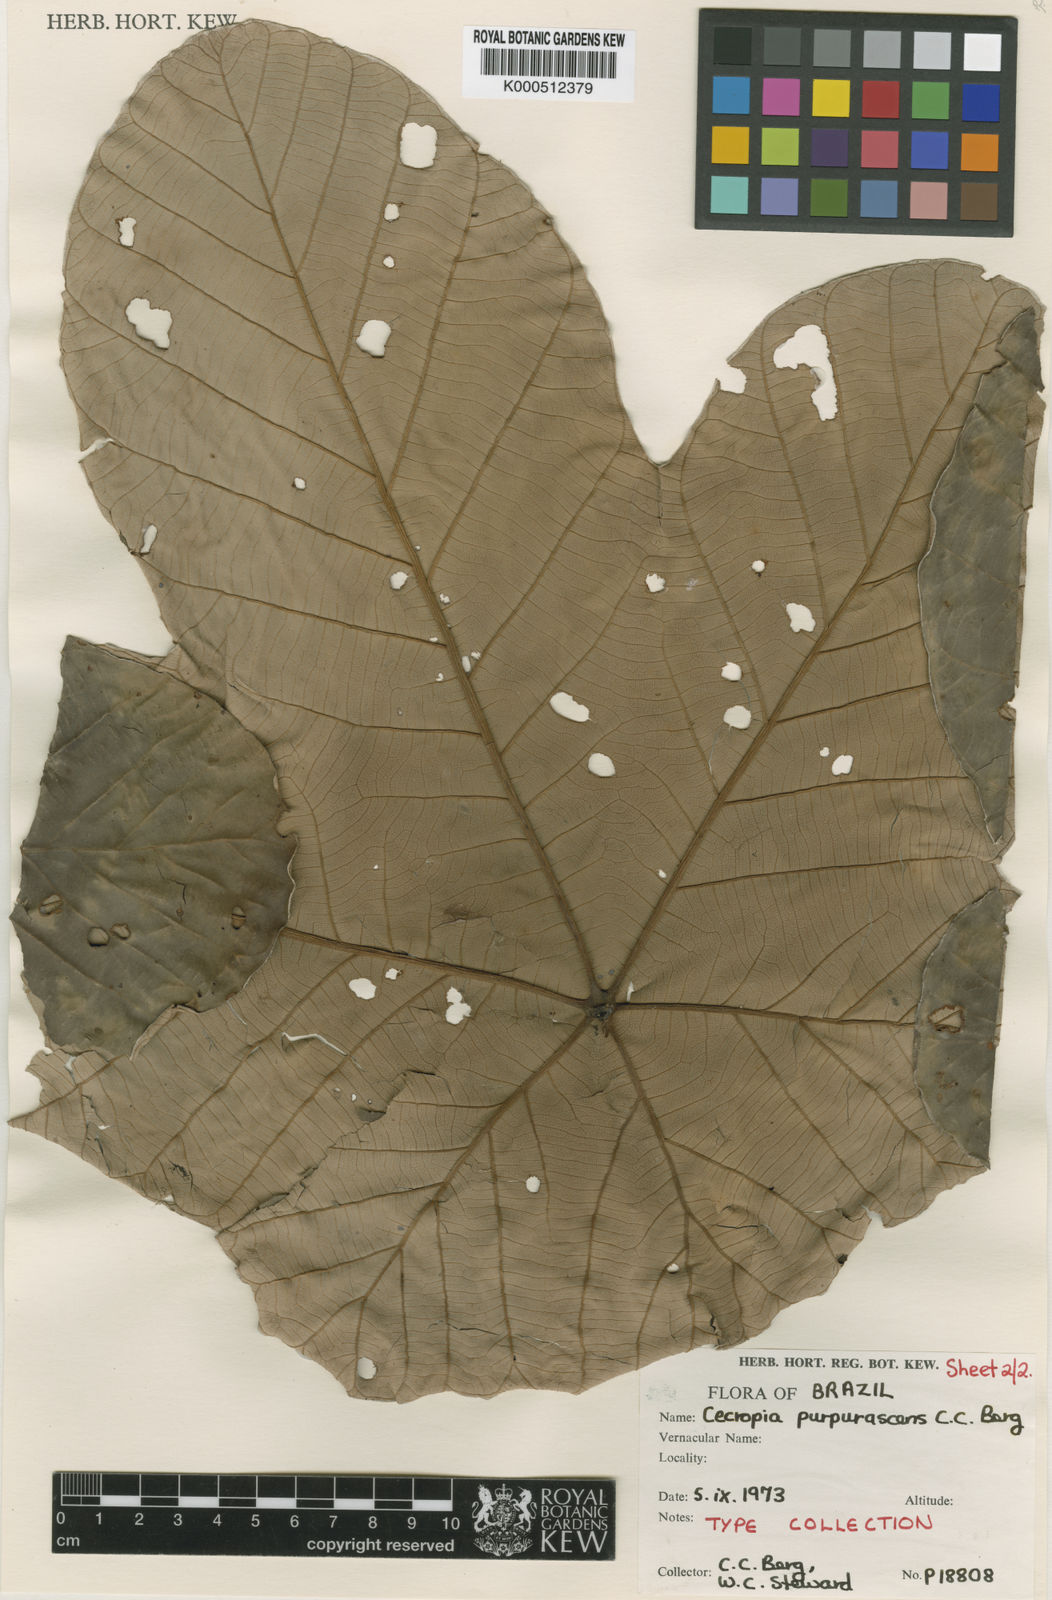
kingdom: Plantae
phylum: Tracheophyta
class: Magnoliopsida
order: Rosales
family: Urticaceae
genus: Cecropia
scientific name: Cecropia purpurascens
